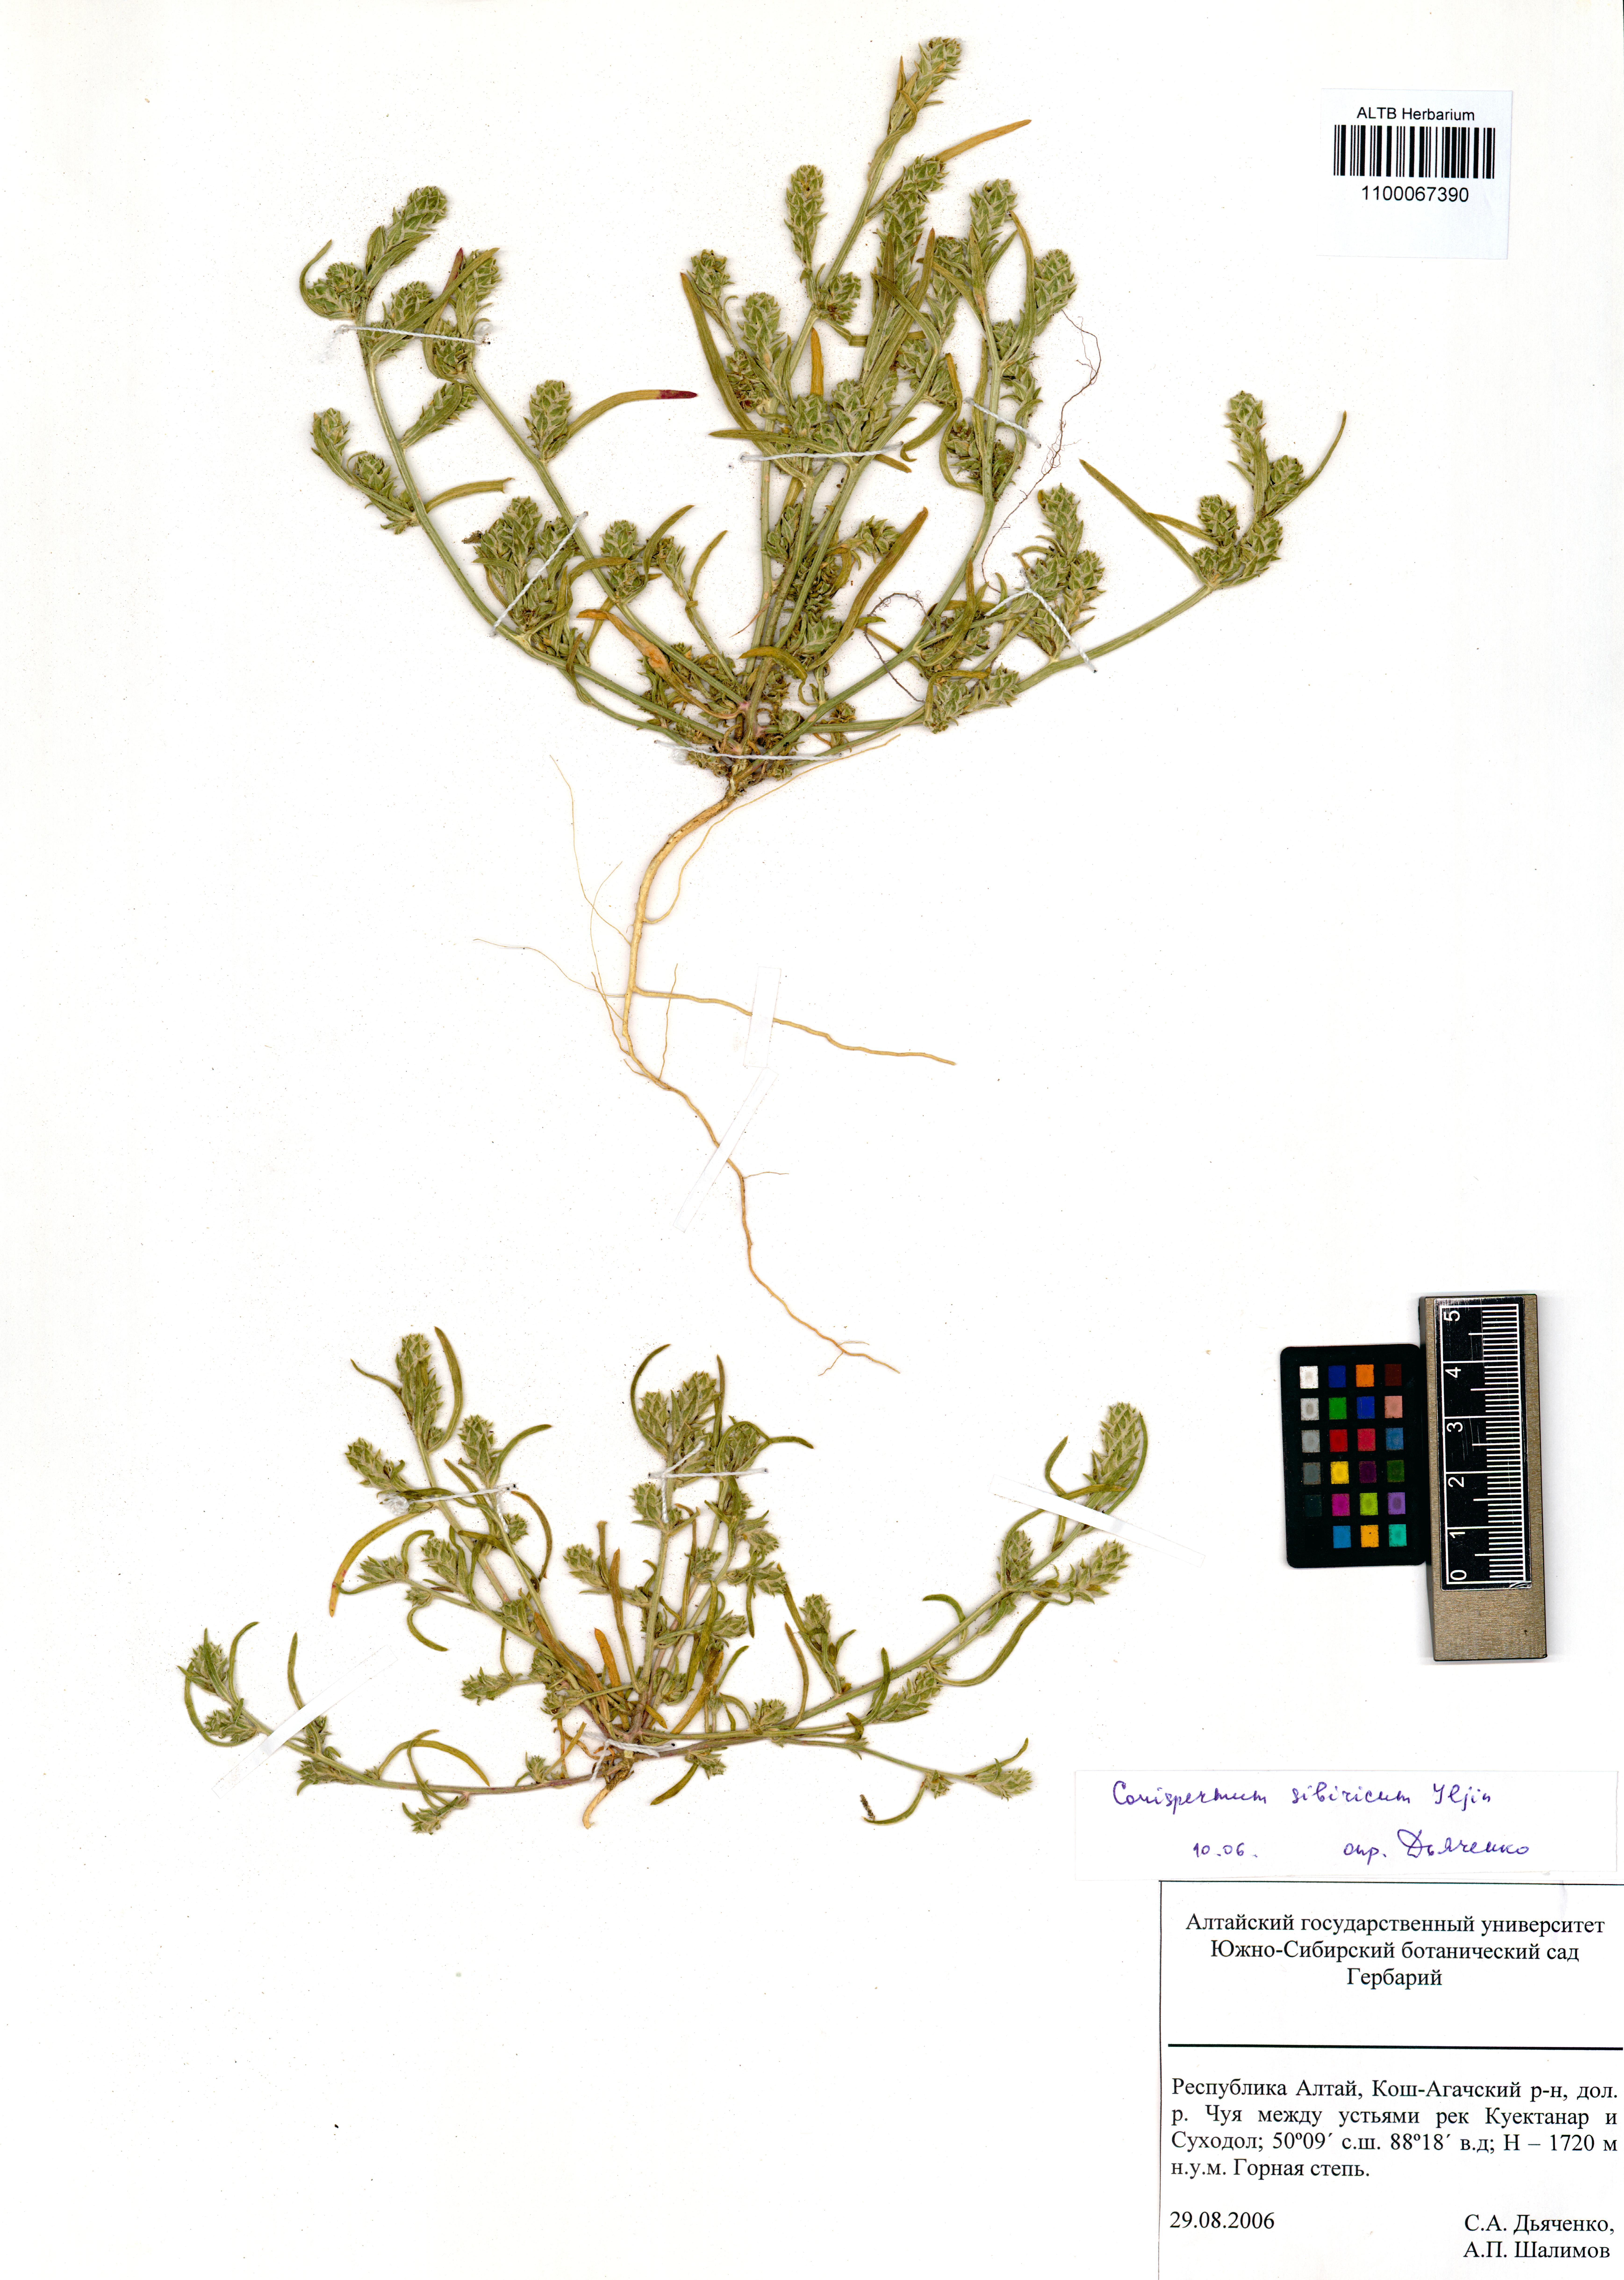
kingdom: Plantae
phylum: Tracheophyta
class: Magnoliopsida
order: Caryophyllales
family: Amaranthaceae
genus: Corispermum
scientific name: Corispermum sibiricum
